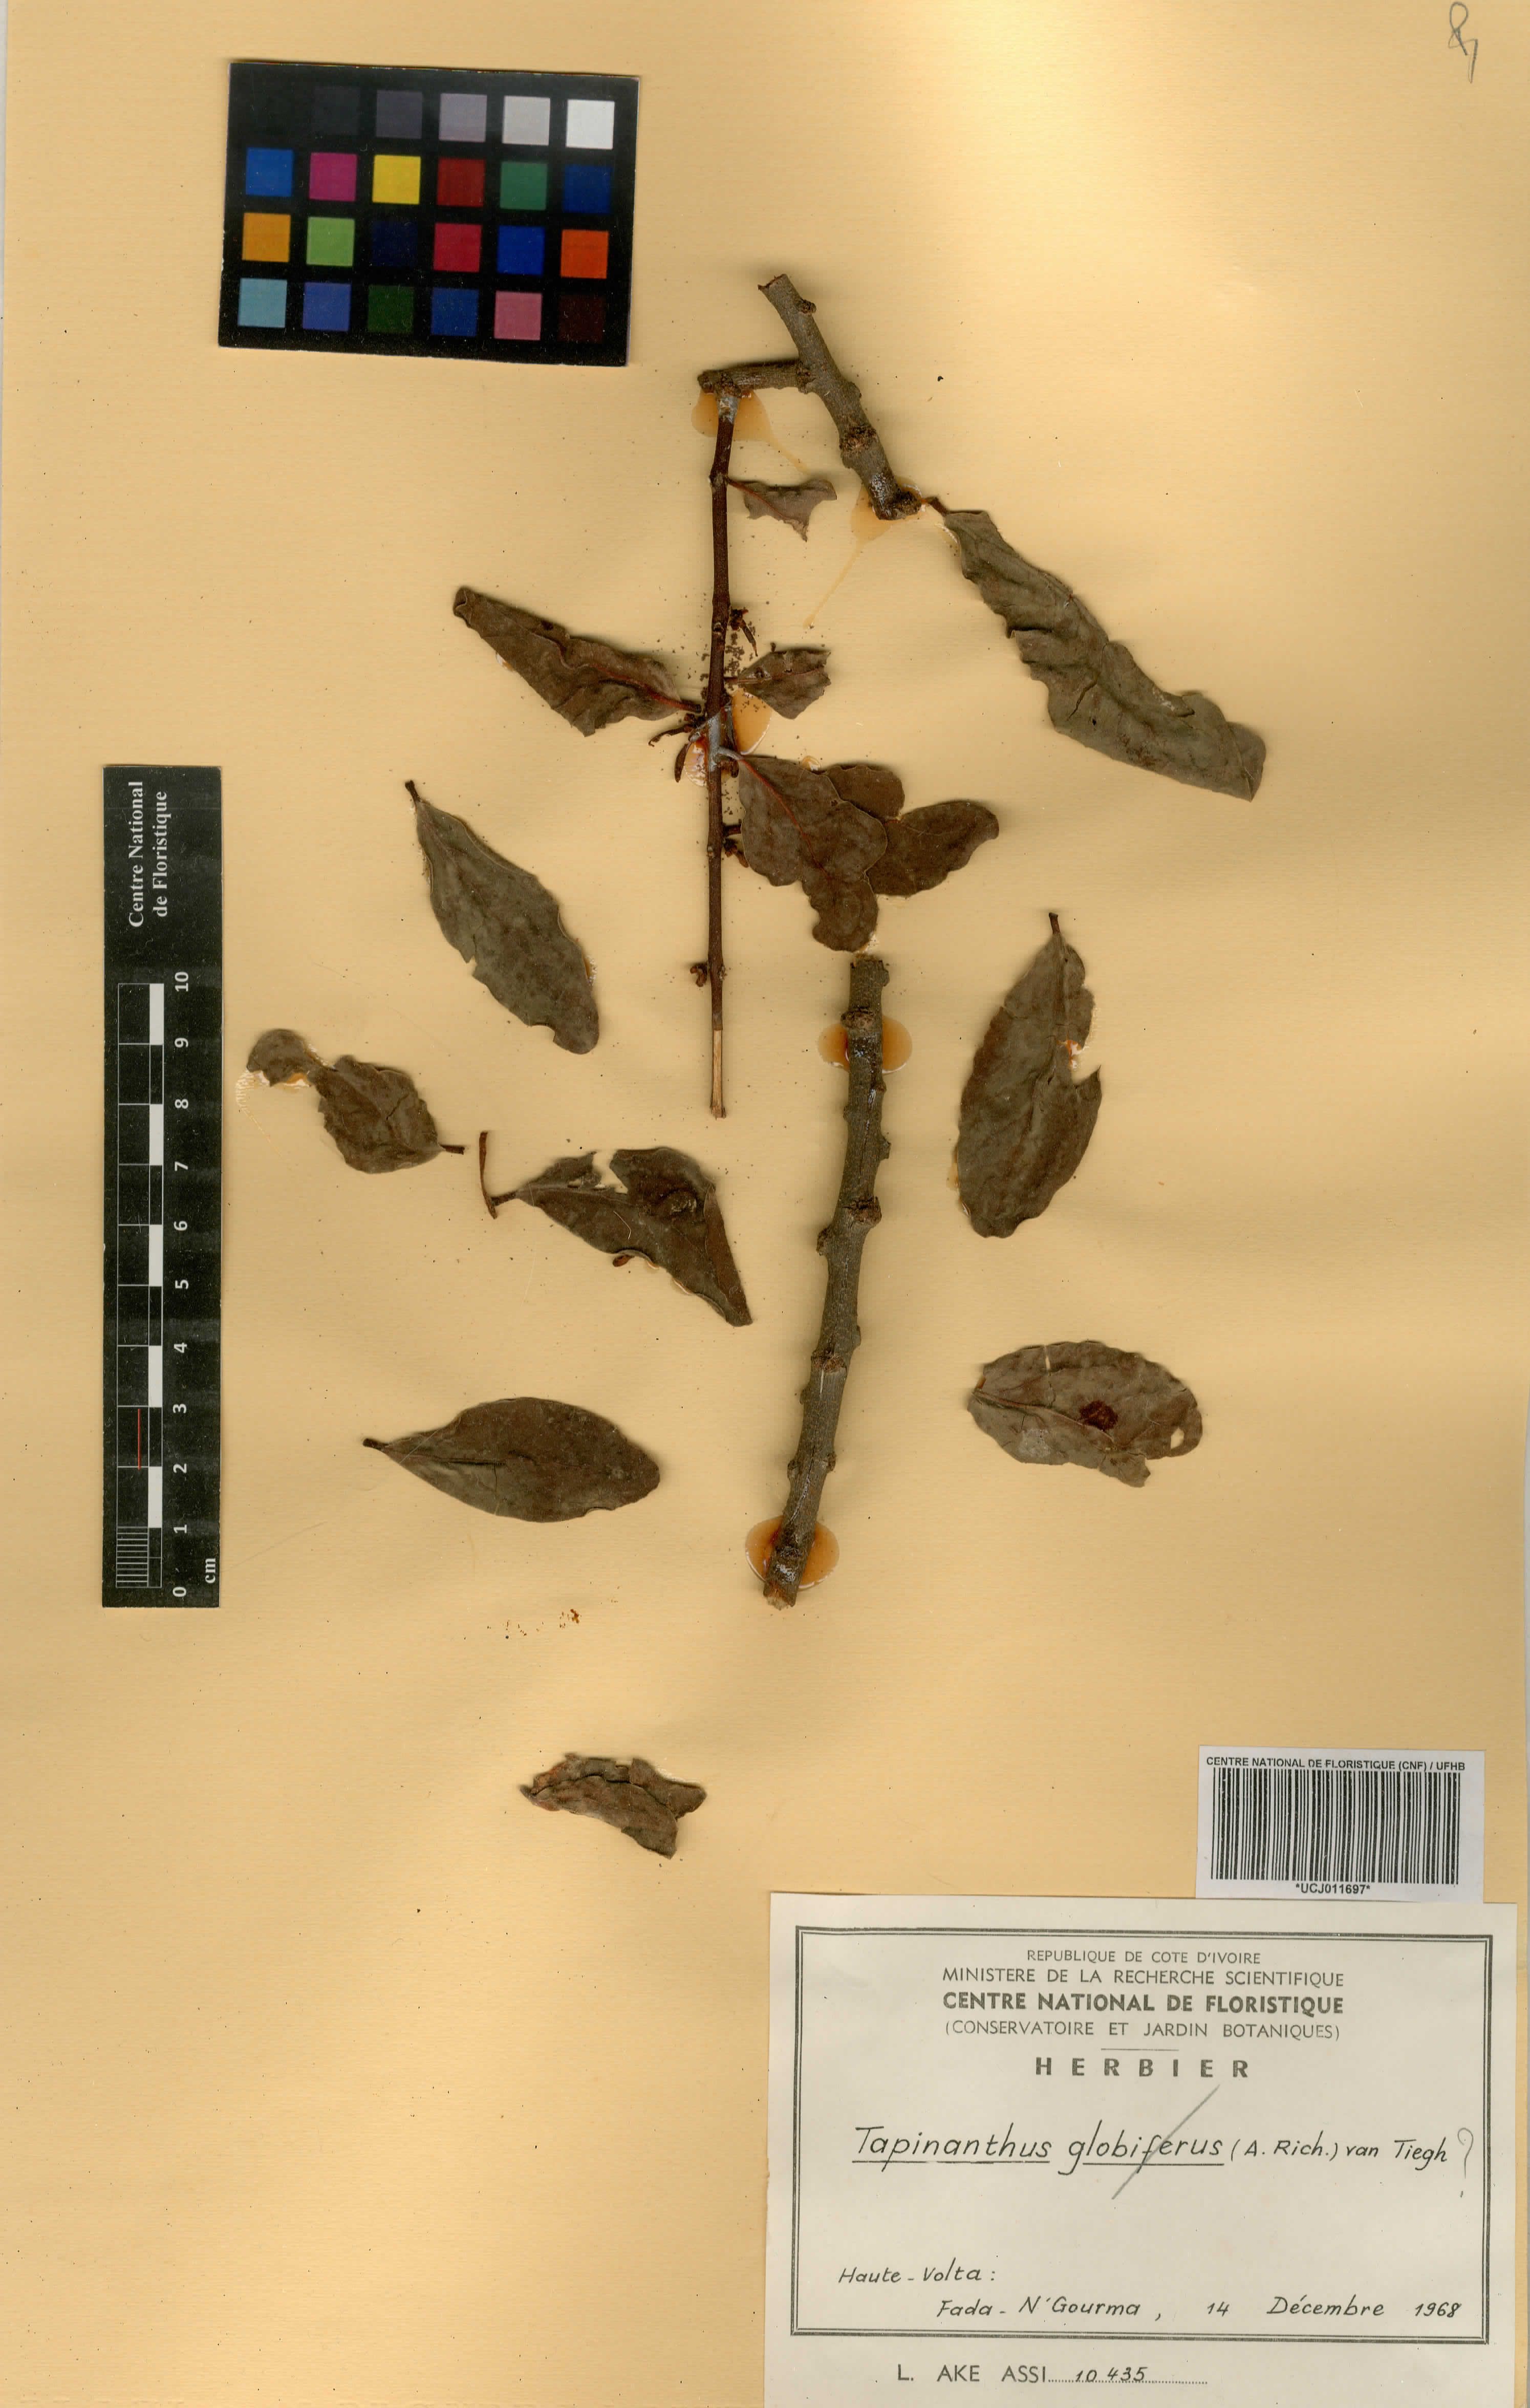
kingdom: Plantae
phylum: Tracheophyta
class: Magnoliopsida
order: Santalales
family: Loranthaceae
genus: Tapinanthus
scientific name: Tapinanthus
